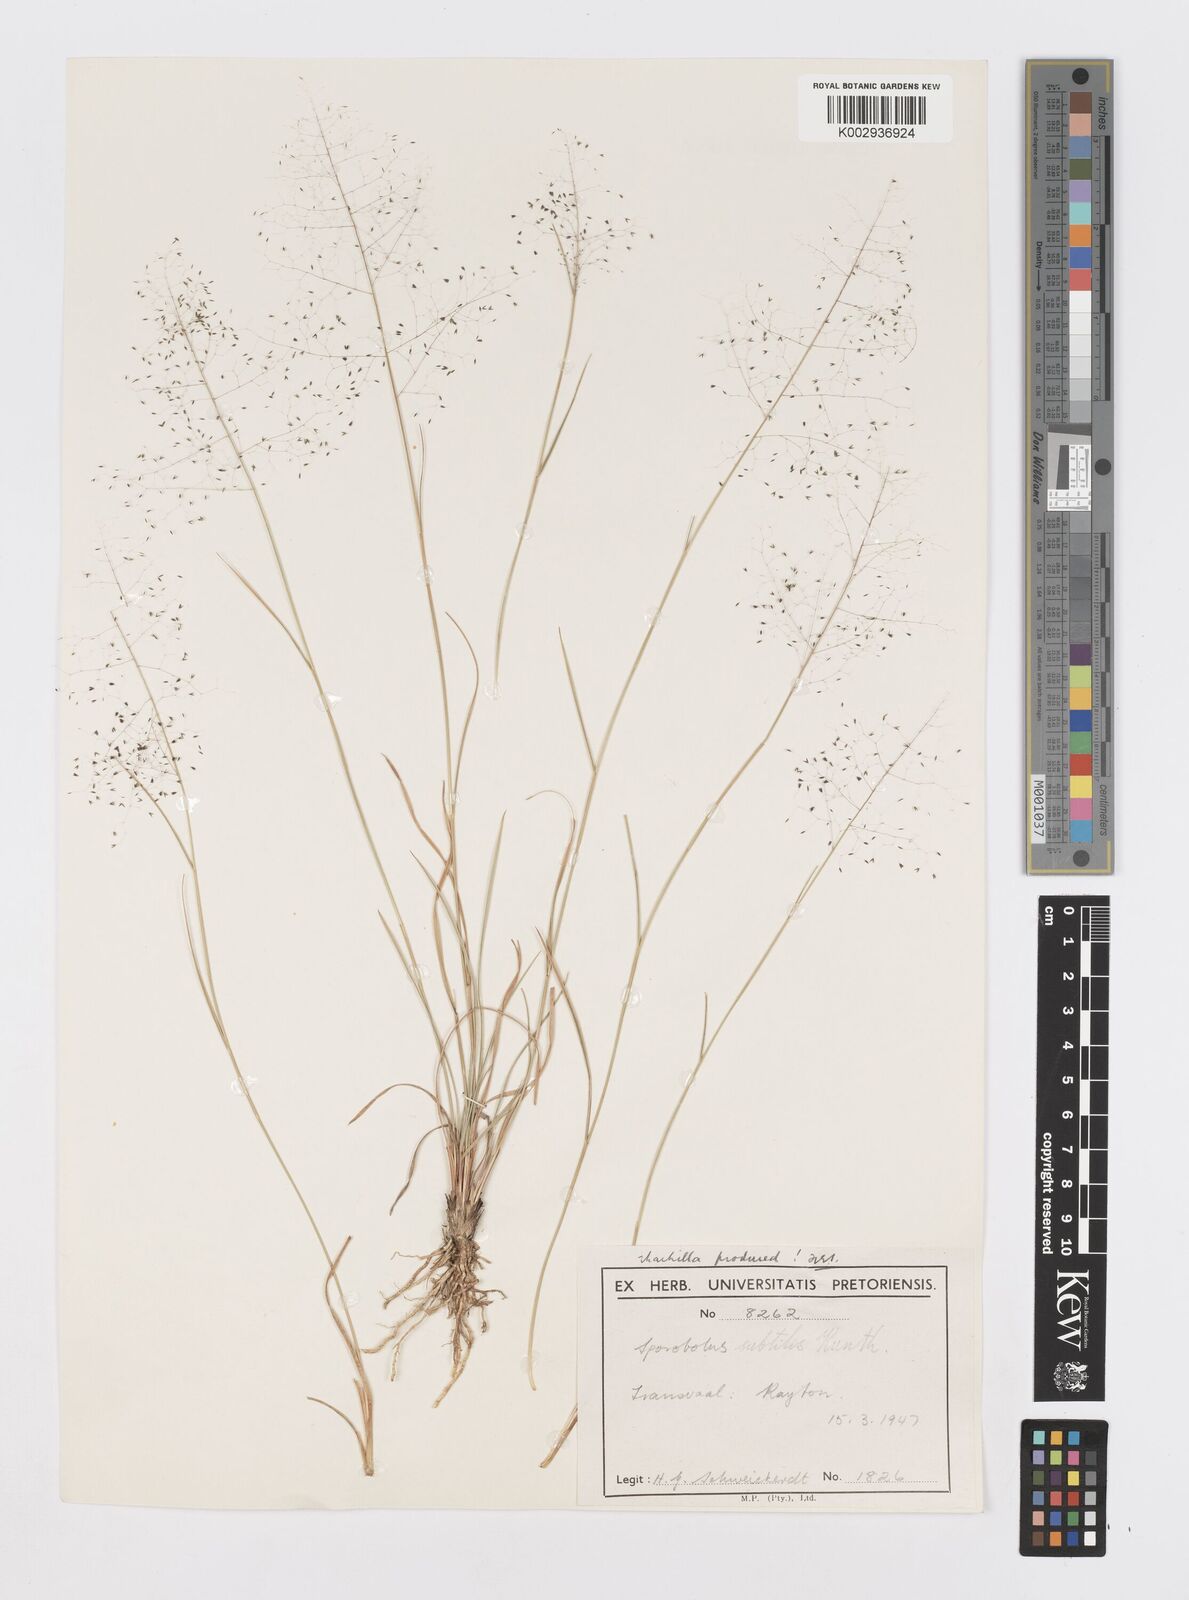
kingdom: Plantae
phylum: Tracheophyta
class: Liliopsida
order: Poales
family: Poaceae
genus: Sporobolus
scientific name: Sporobolus subtilis
